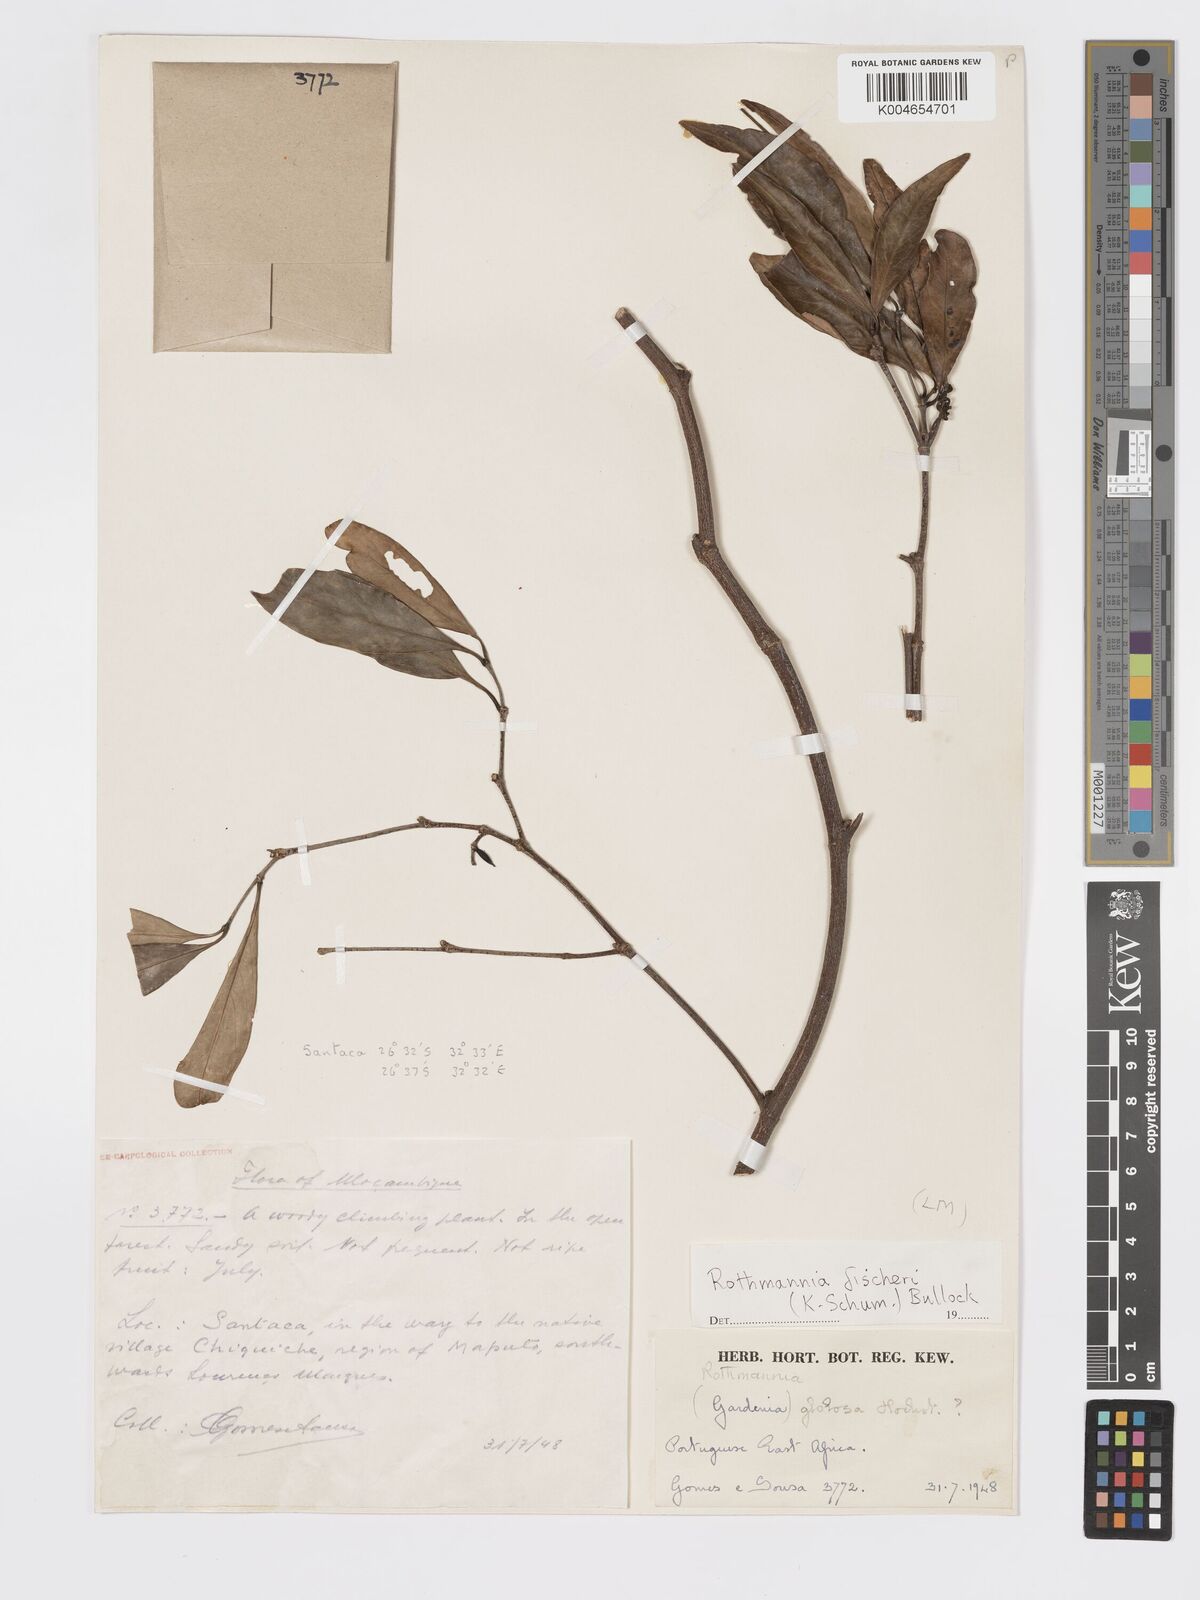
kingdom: Plantae
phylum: Tracheophyta
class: Magnoliopsida
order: Gentianales
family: Rubiaceae
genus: Rothmannia
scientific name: Rothmannia fischeri
